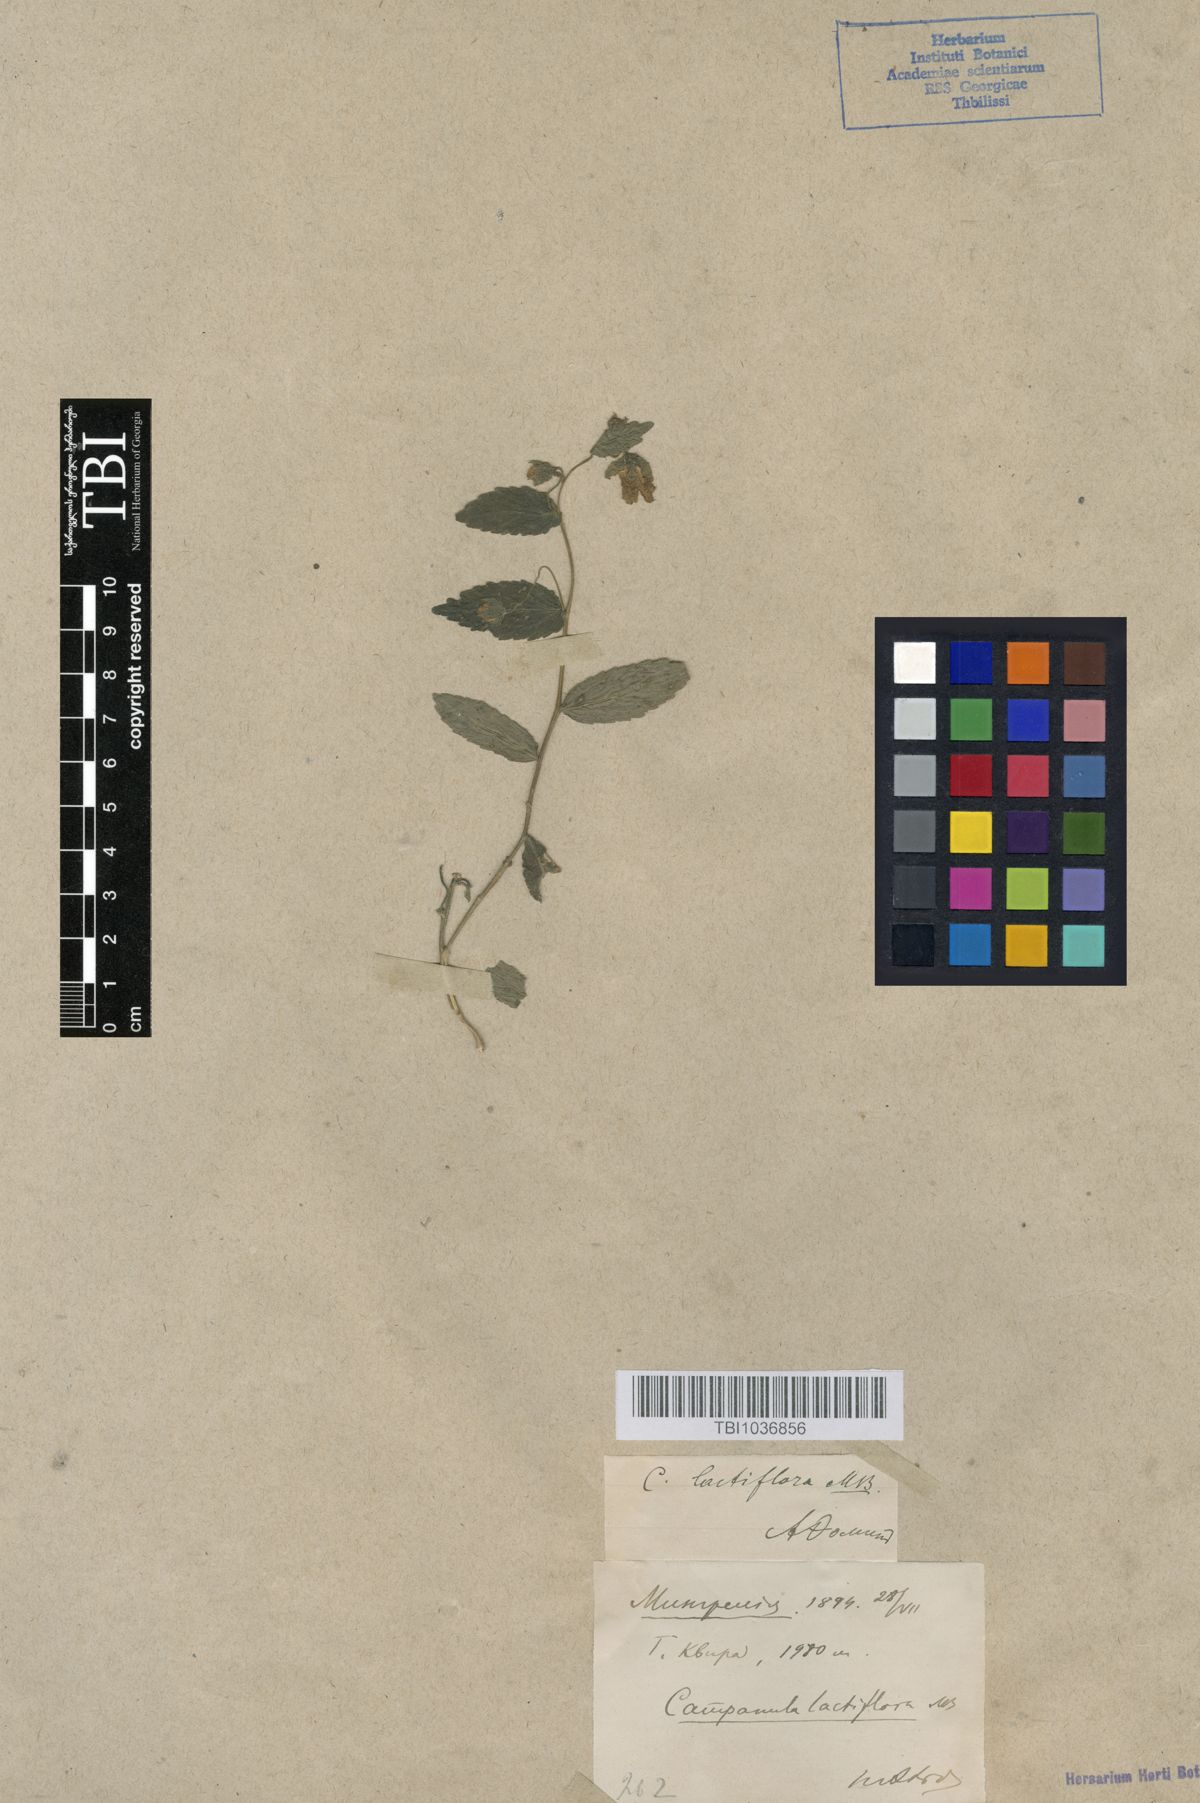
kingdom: Plantae
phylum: Tracheophyta
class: Magnoliopsida
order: Asterales
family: Campanulaceae
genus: Campanula
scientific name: Campanula lactiflora
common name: Milky bellflower
